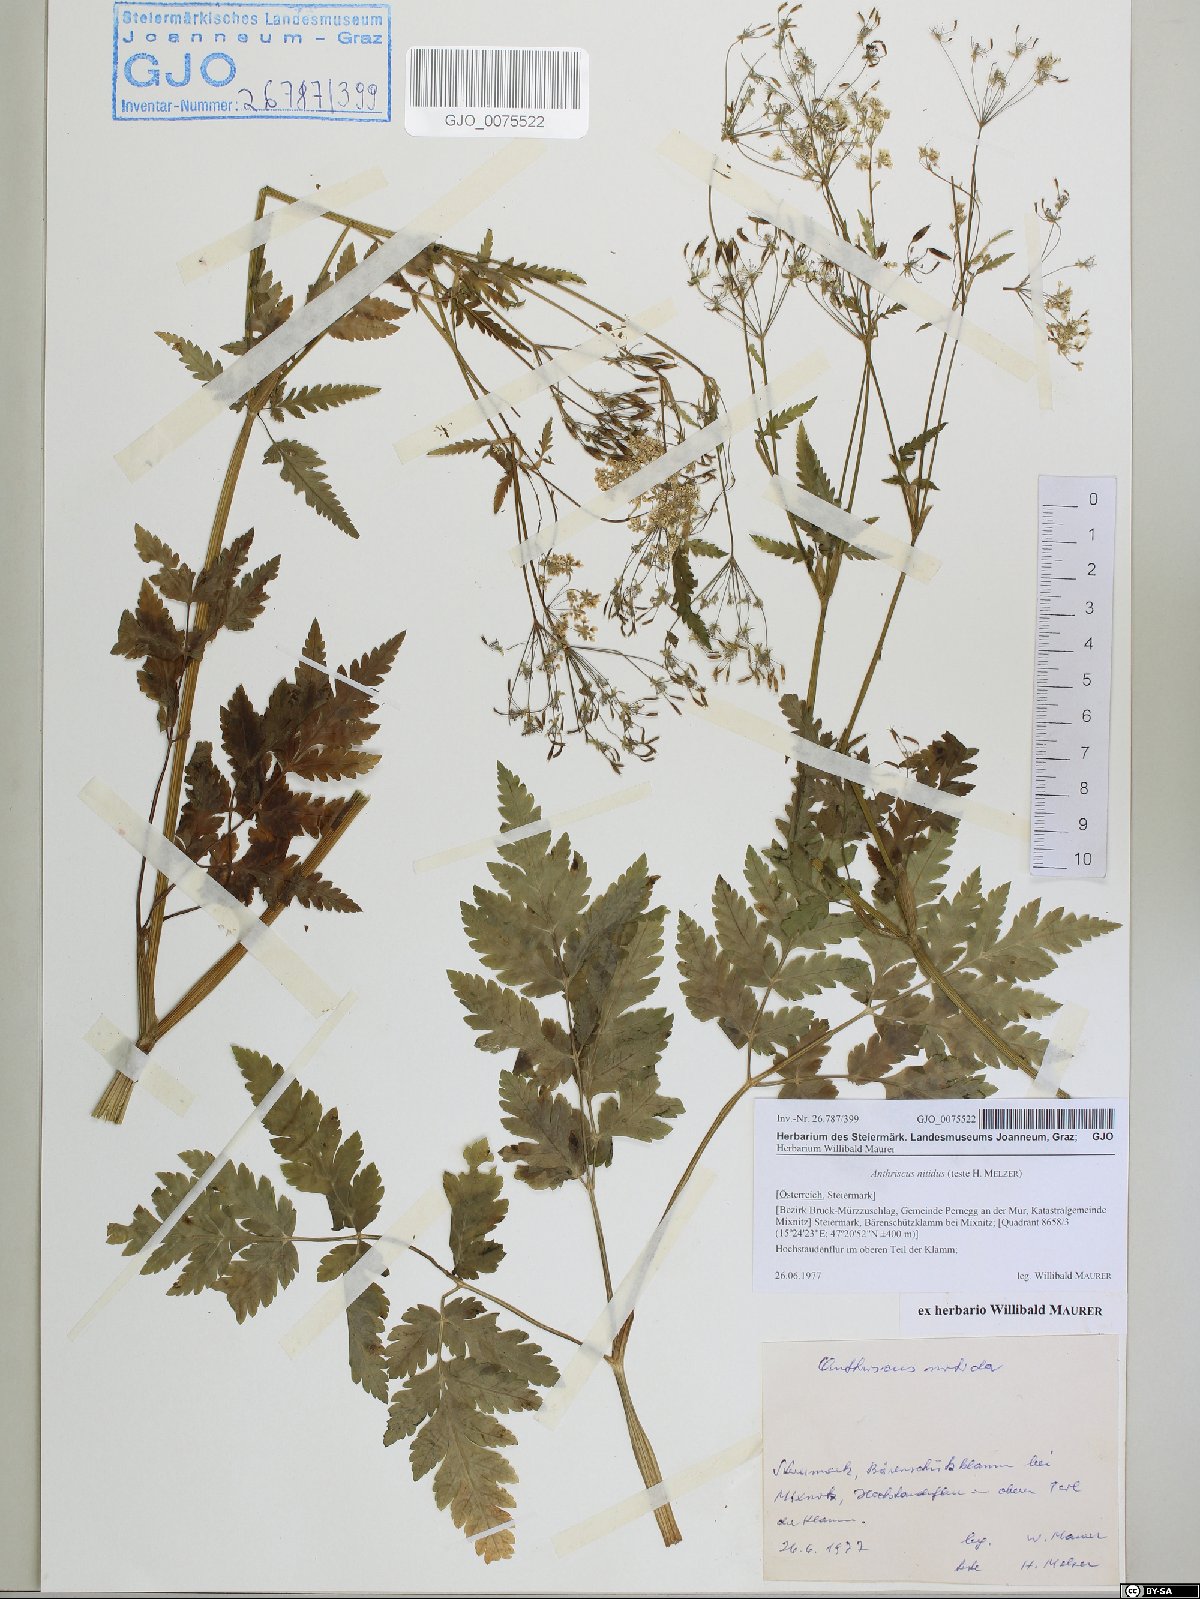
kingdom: Plantae
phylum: Tracheophyta
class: Magnoliopsida
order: Apiales
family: Apiaceae
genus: Anthriscus
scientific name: Anthriscus nitida
